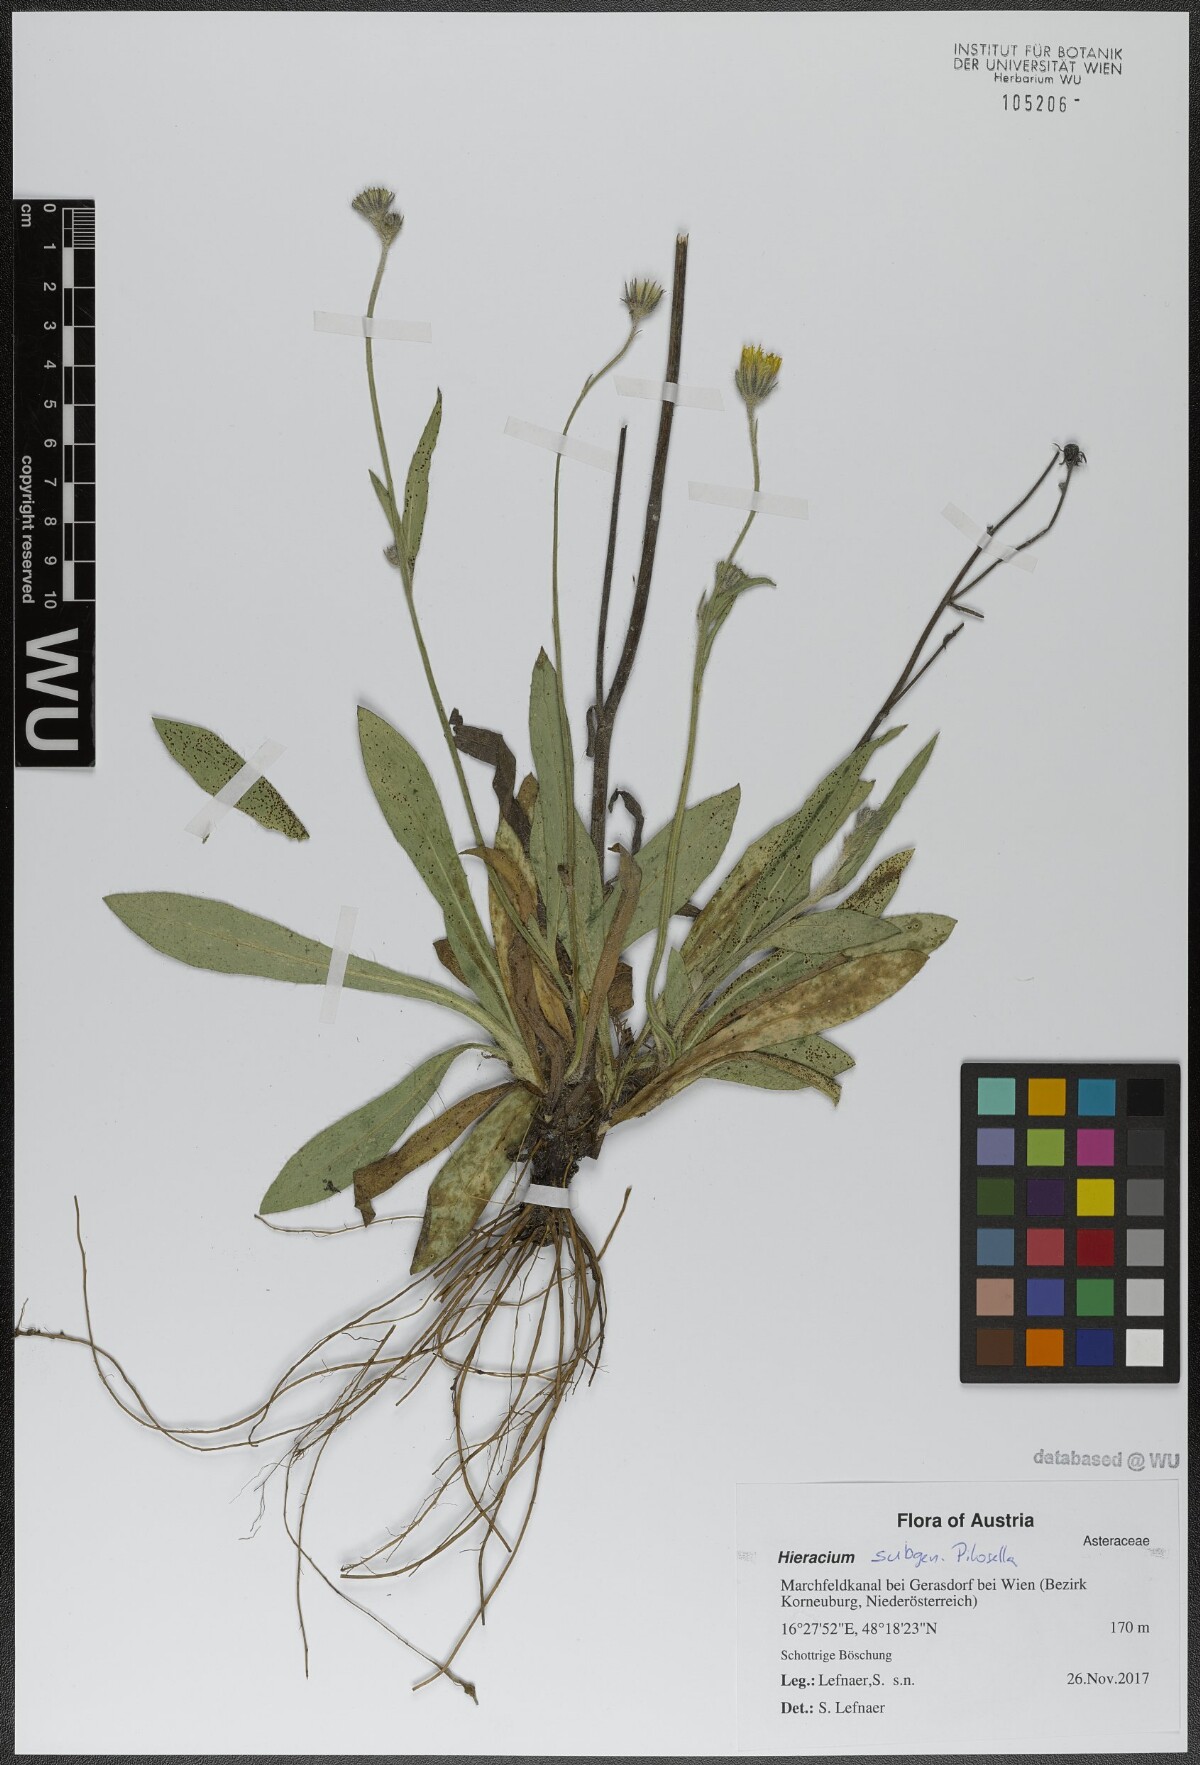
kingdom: Plantae
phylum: Tracheophyta
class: Magnoliopsida
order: Asterales
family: Asteraceae
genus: Hieracium
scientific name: Hieracium
